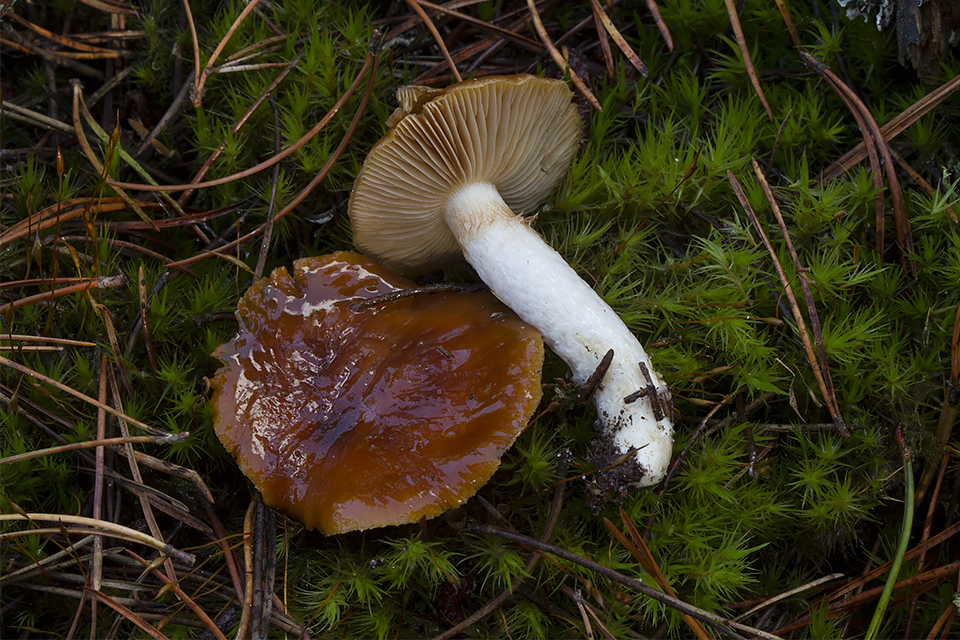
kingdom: Fungi
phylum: Basidiomycota
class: Agaricomycetes
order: Agaricales
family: Cortinariaceae
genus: Cortinarius
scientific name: Cortinarius mucosus
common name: kastaniebrun slørhat
